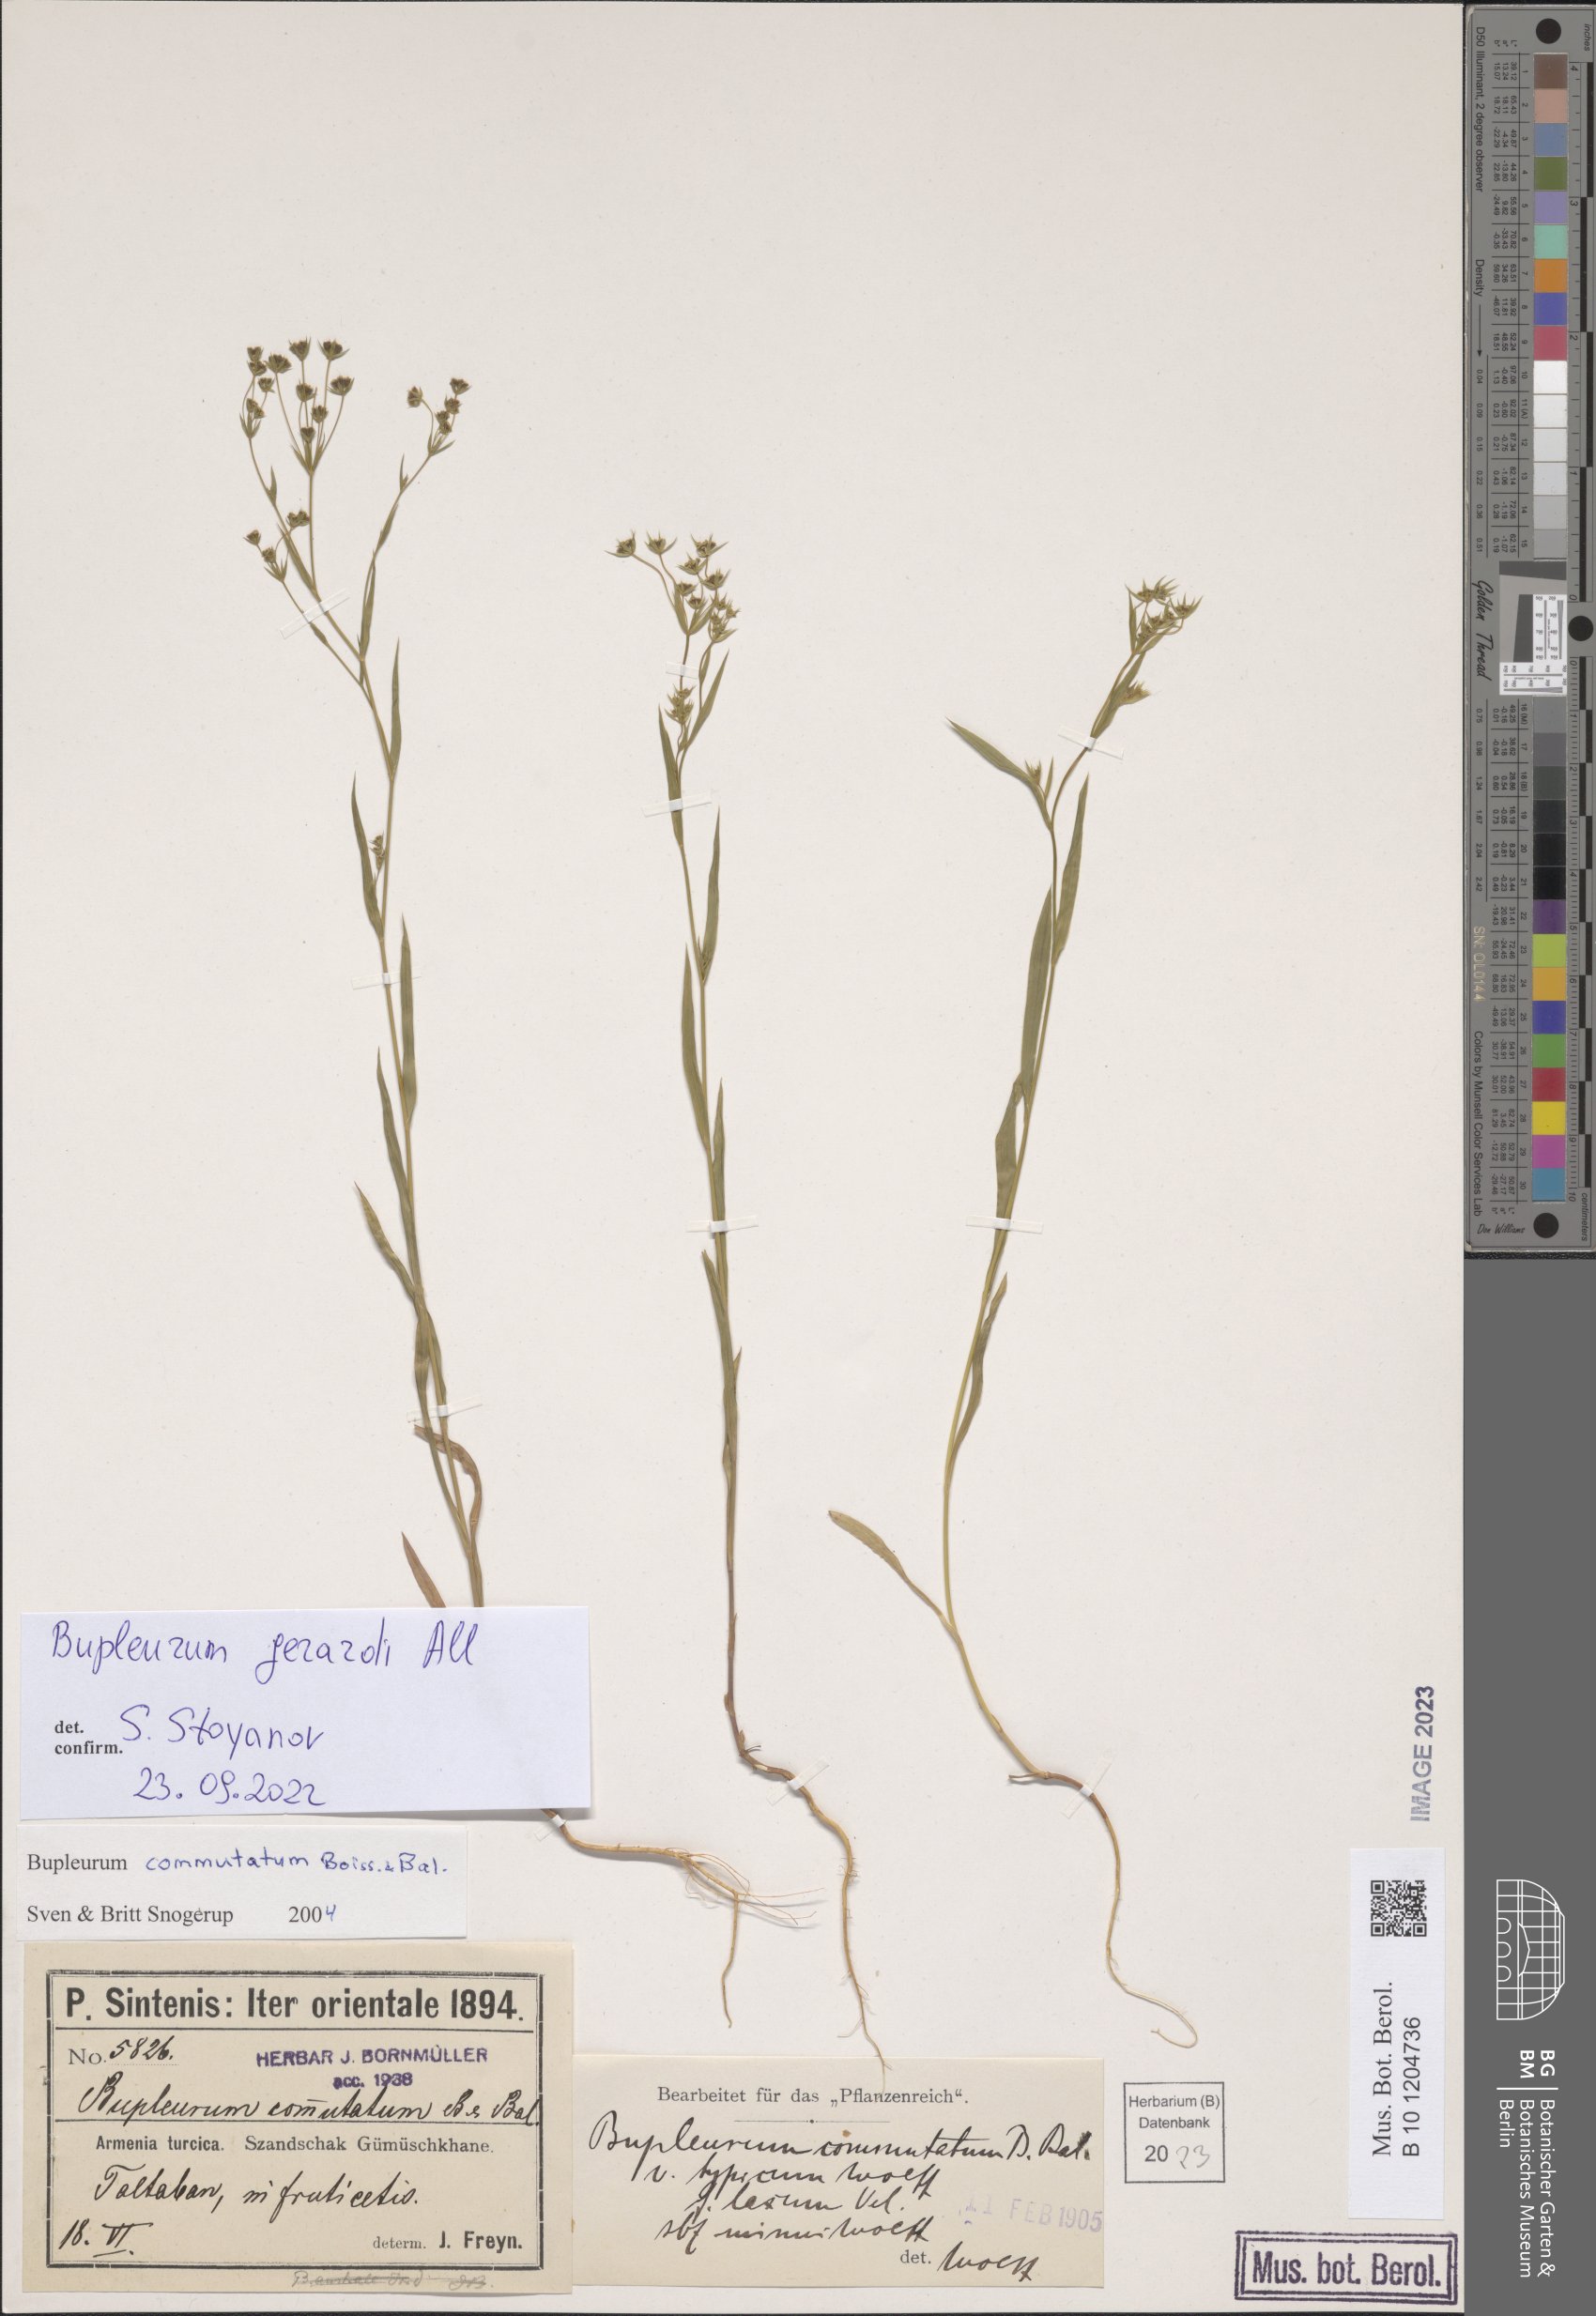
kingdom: Plantae
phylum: Tracheophyta
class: Magnoliopsida
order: Apiales
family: Apiaceae
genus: Bupleurum
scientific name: Bupleurum gerardi
